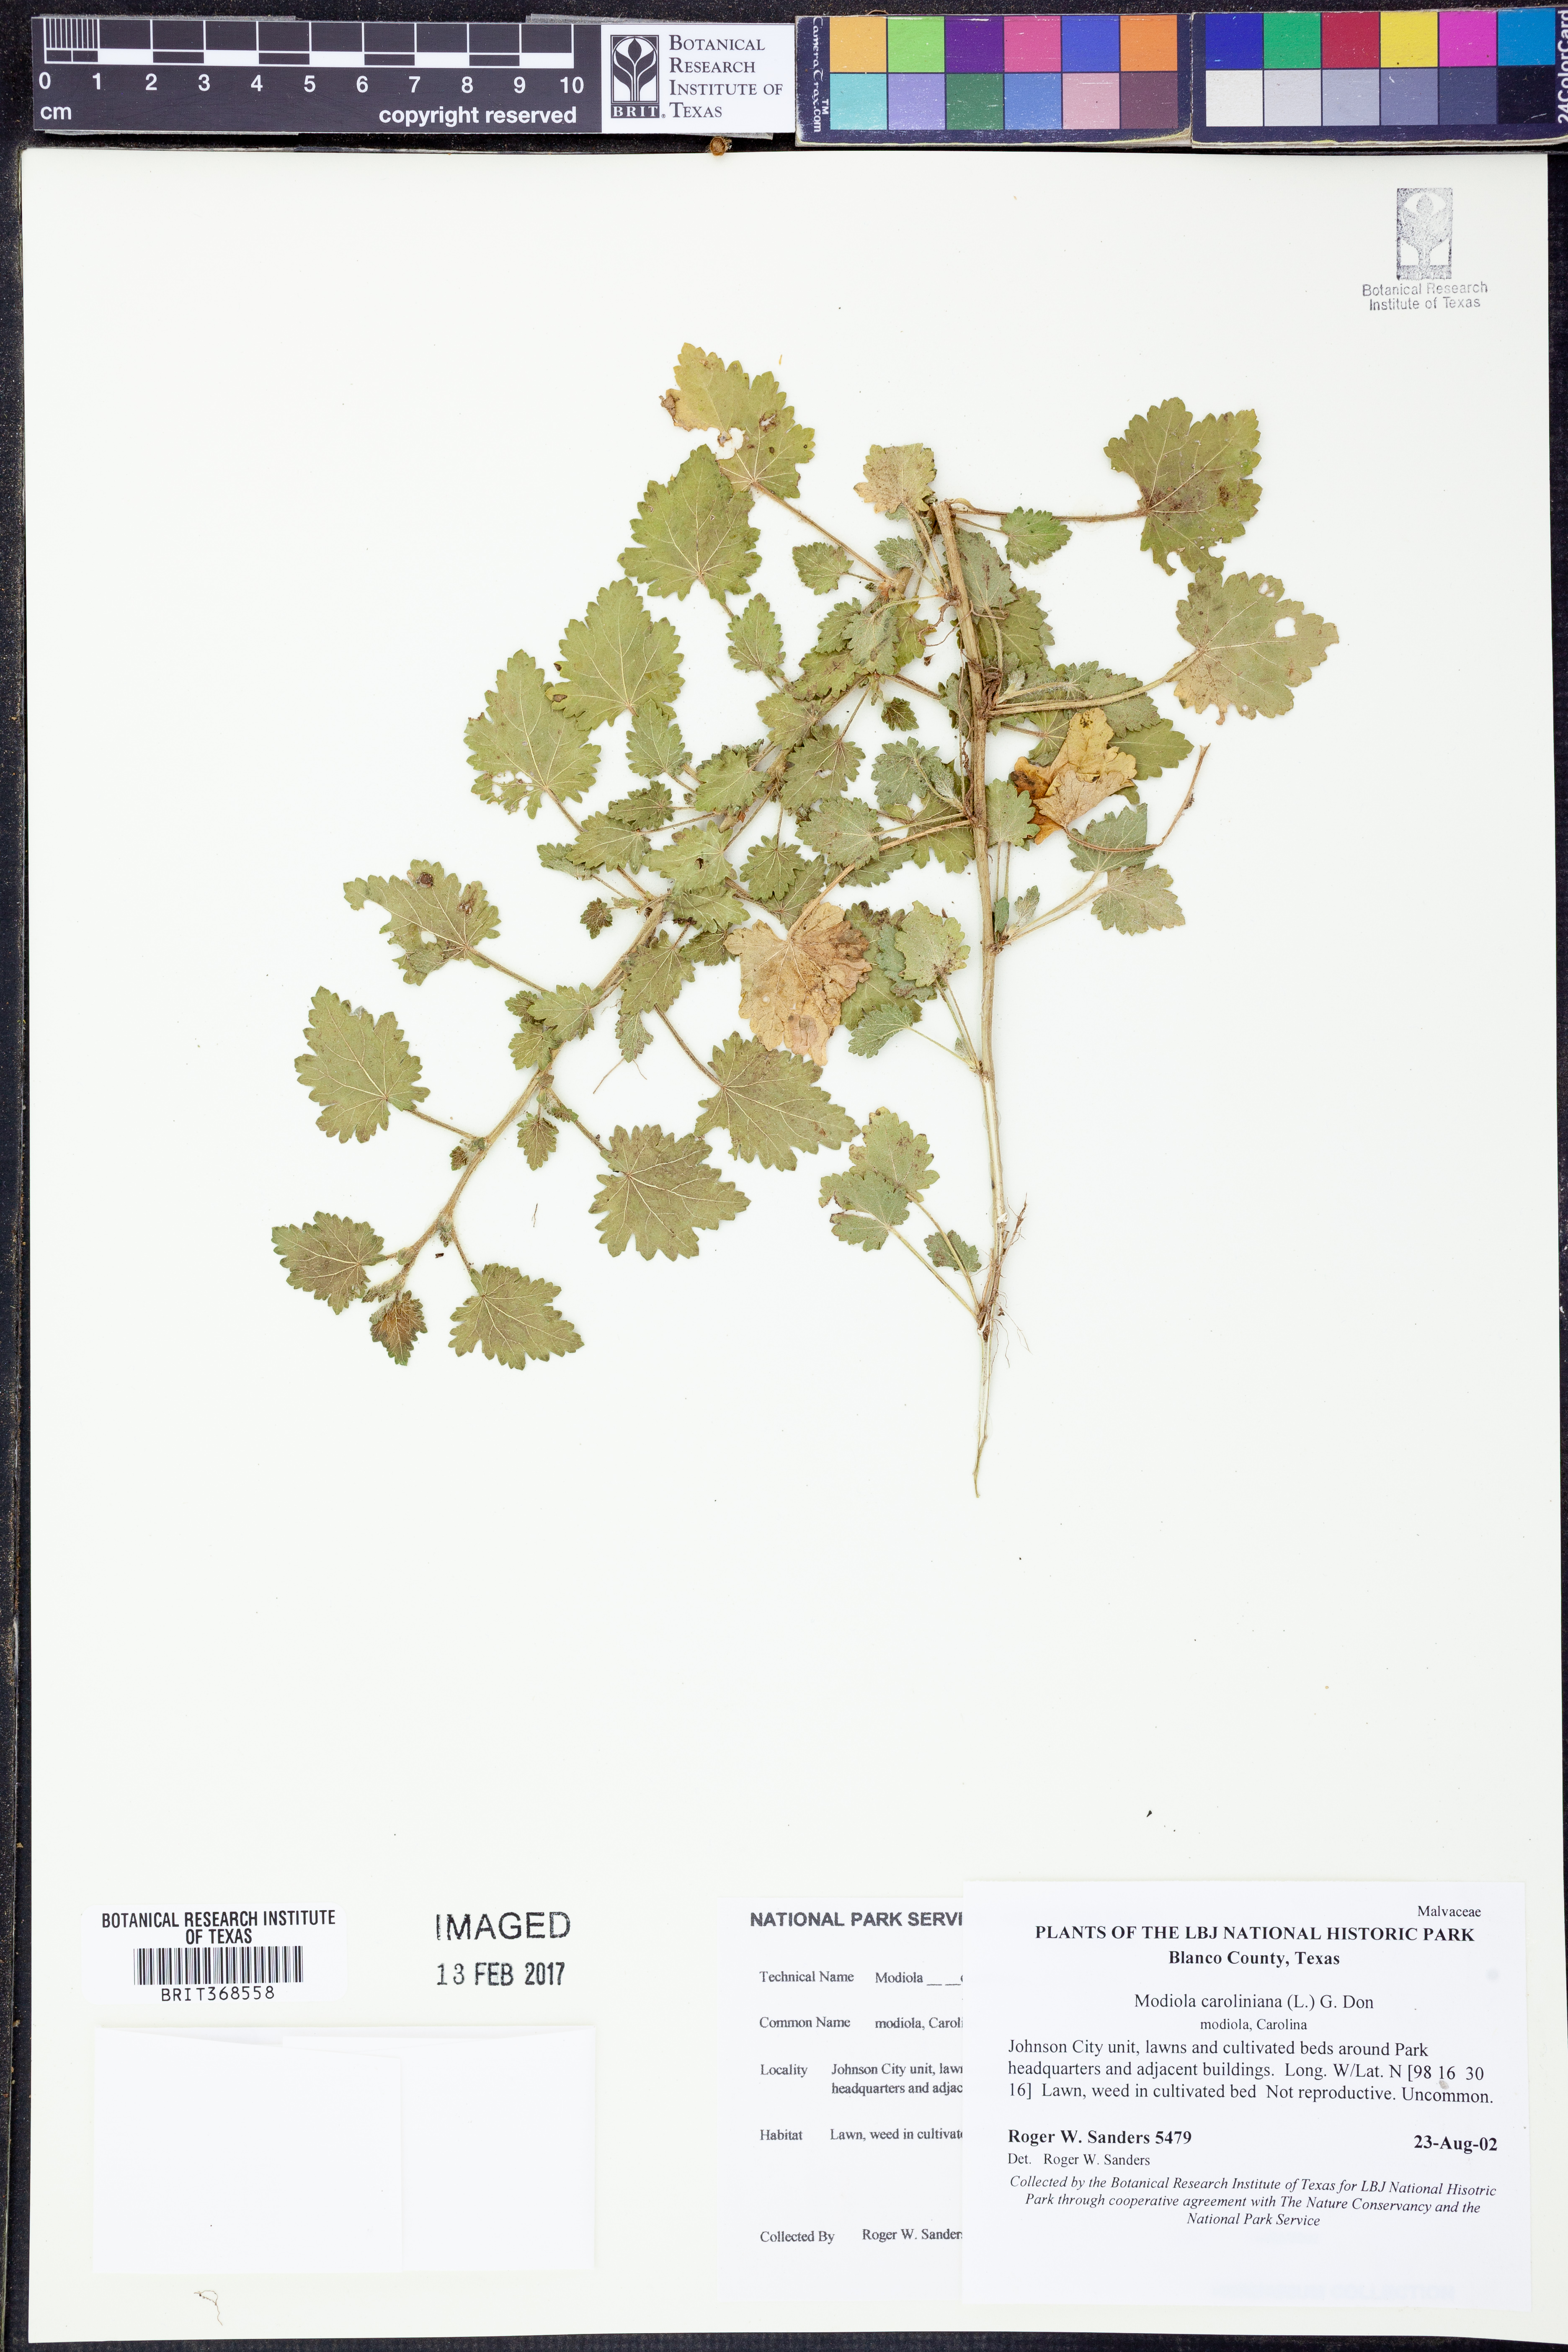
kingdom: Plantae
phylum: Tracheophyta
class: Magnoliopsida
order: Malvales
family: Malvaceae
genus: Modiola
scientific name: Modiola caroliniana
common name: Carolina bristlemallow
